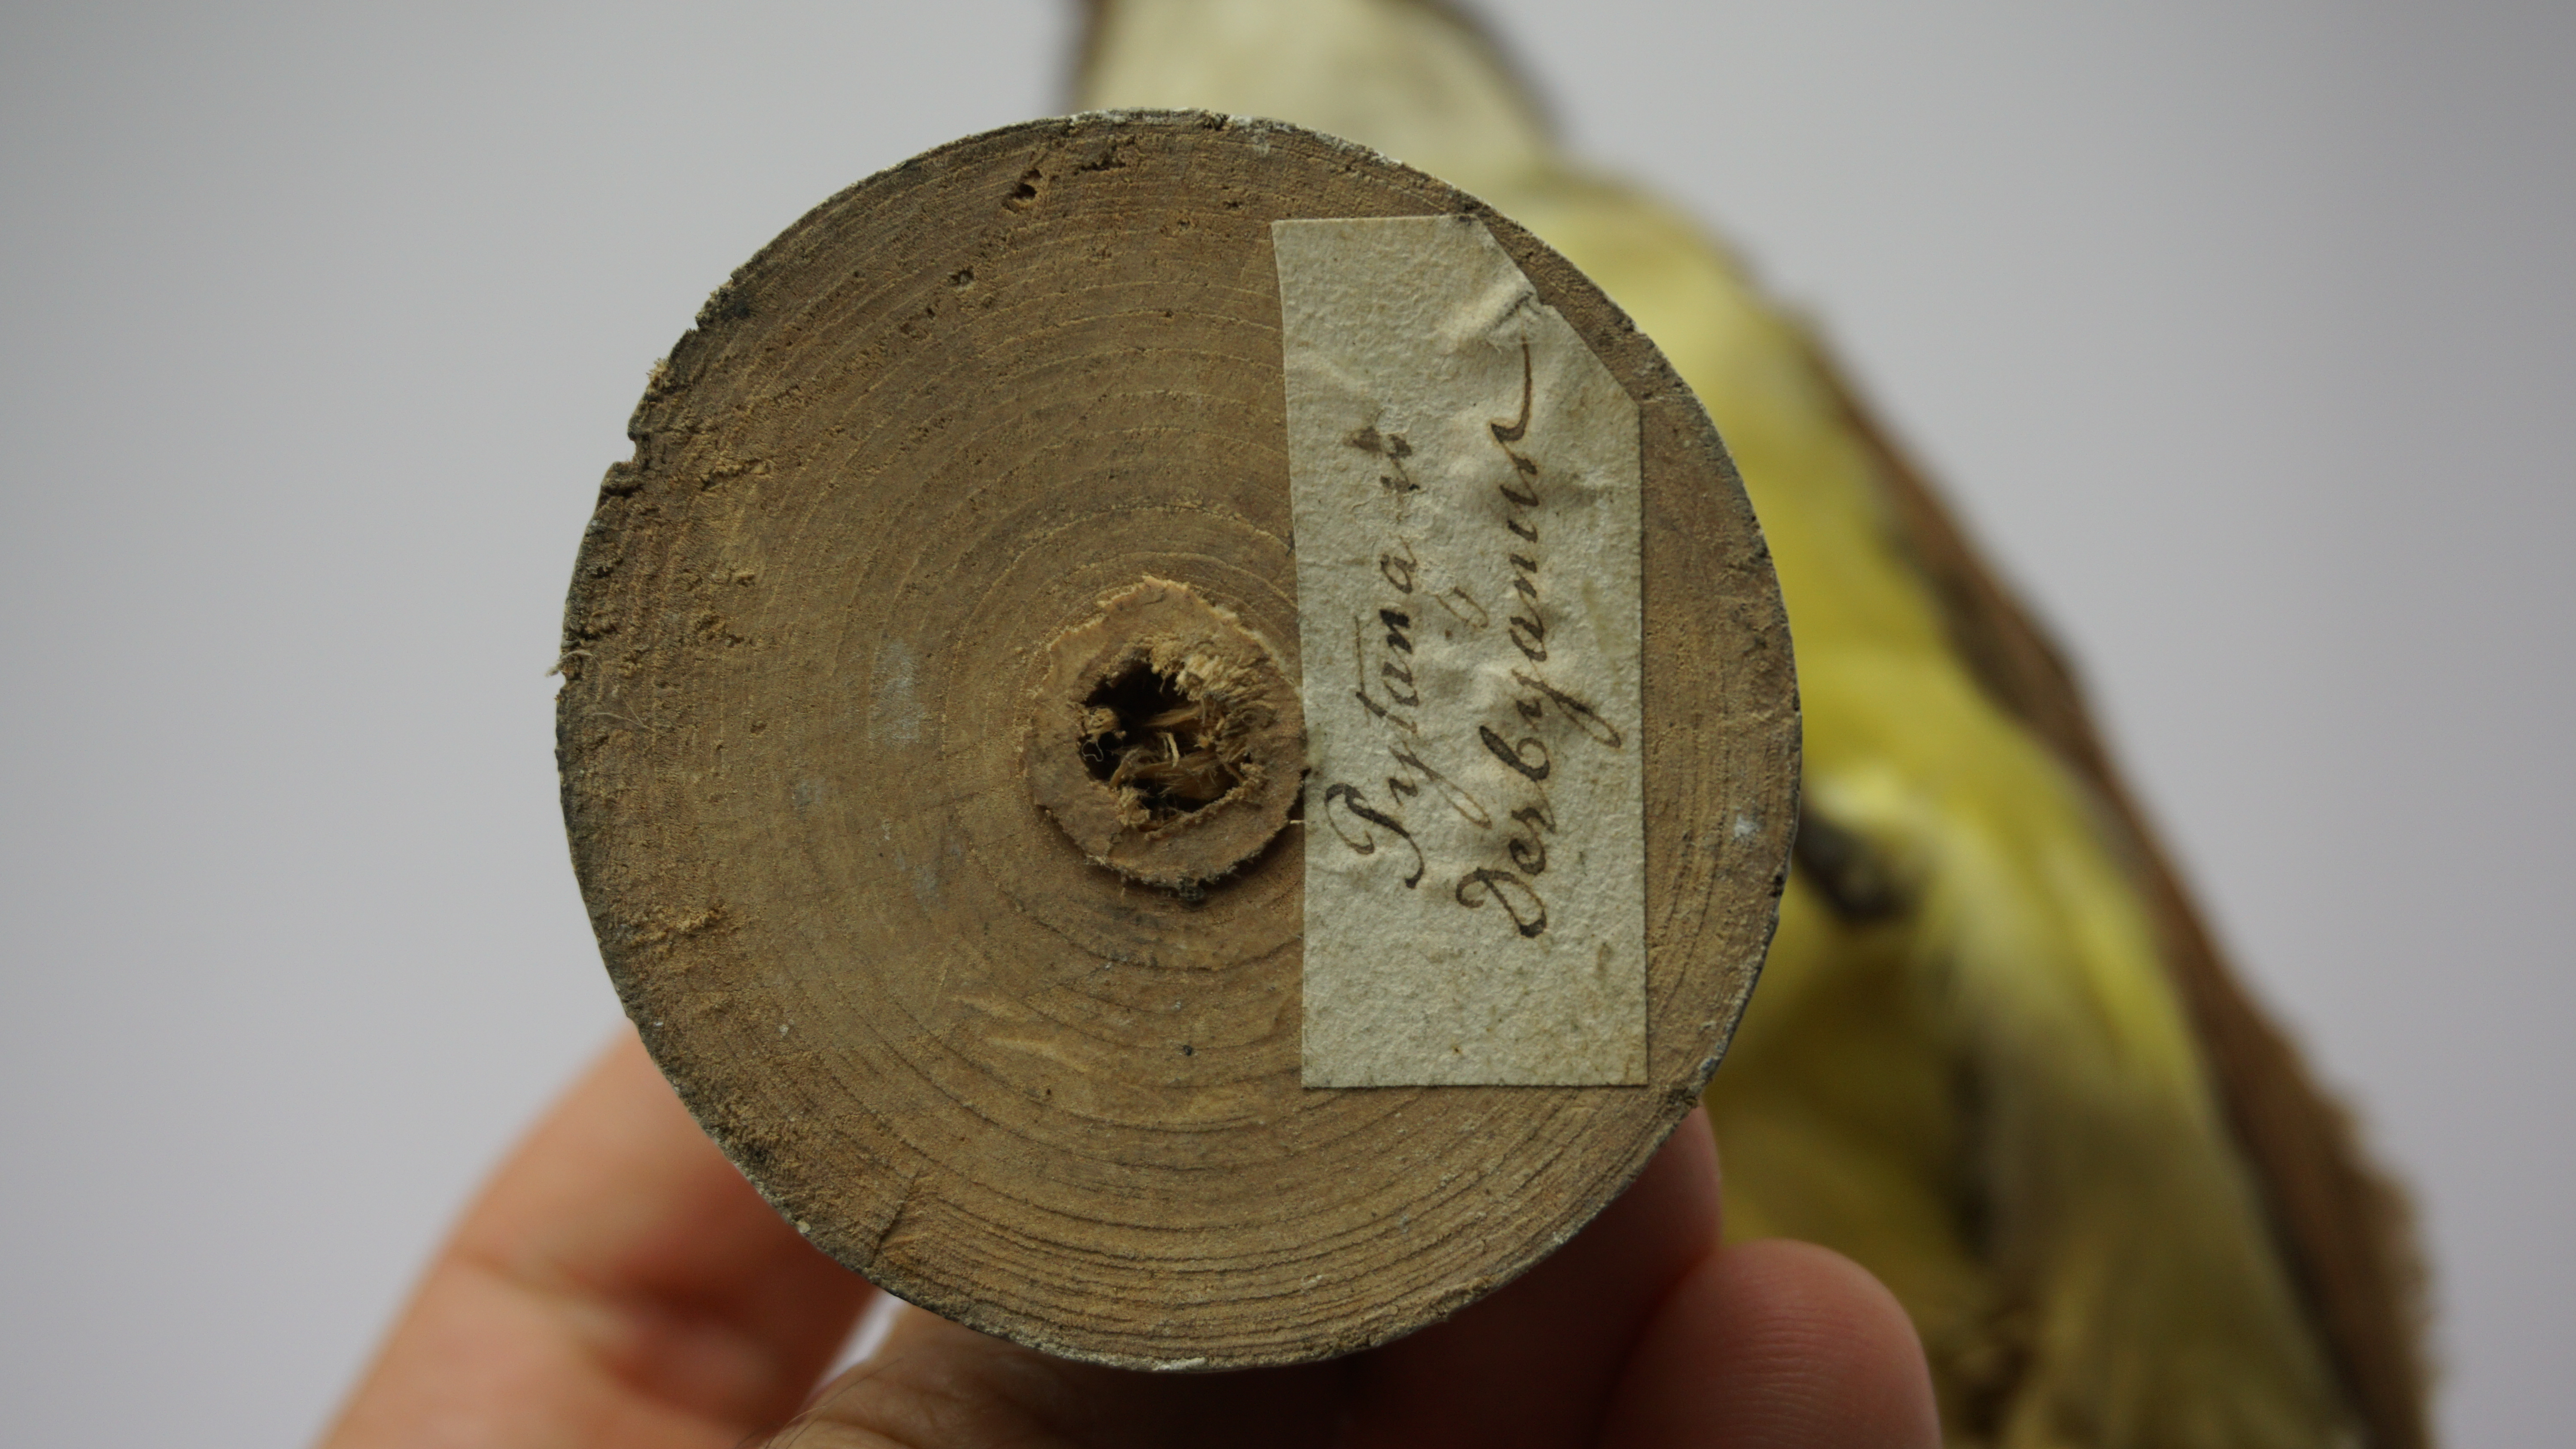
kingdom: Animalia
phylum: Chordata
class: Aves
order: Passeriformes
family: Tyrannidae
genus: Pitangus
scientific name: Pitangus sulphuratus
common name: Great kiskadee
